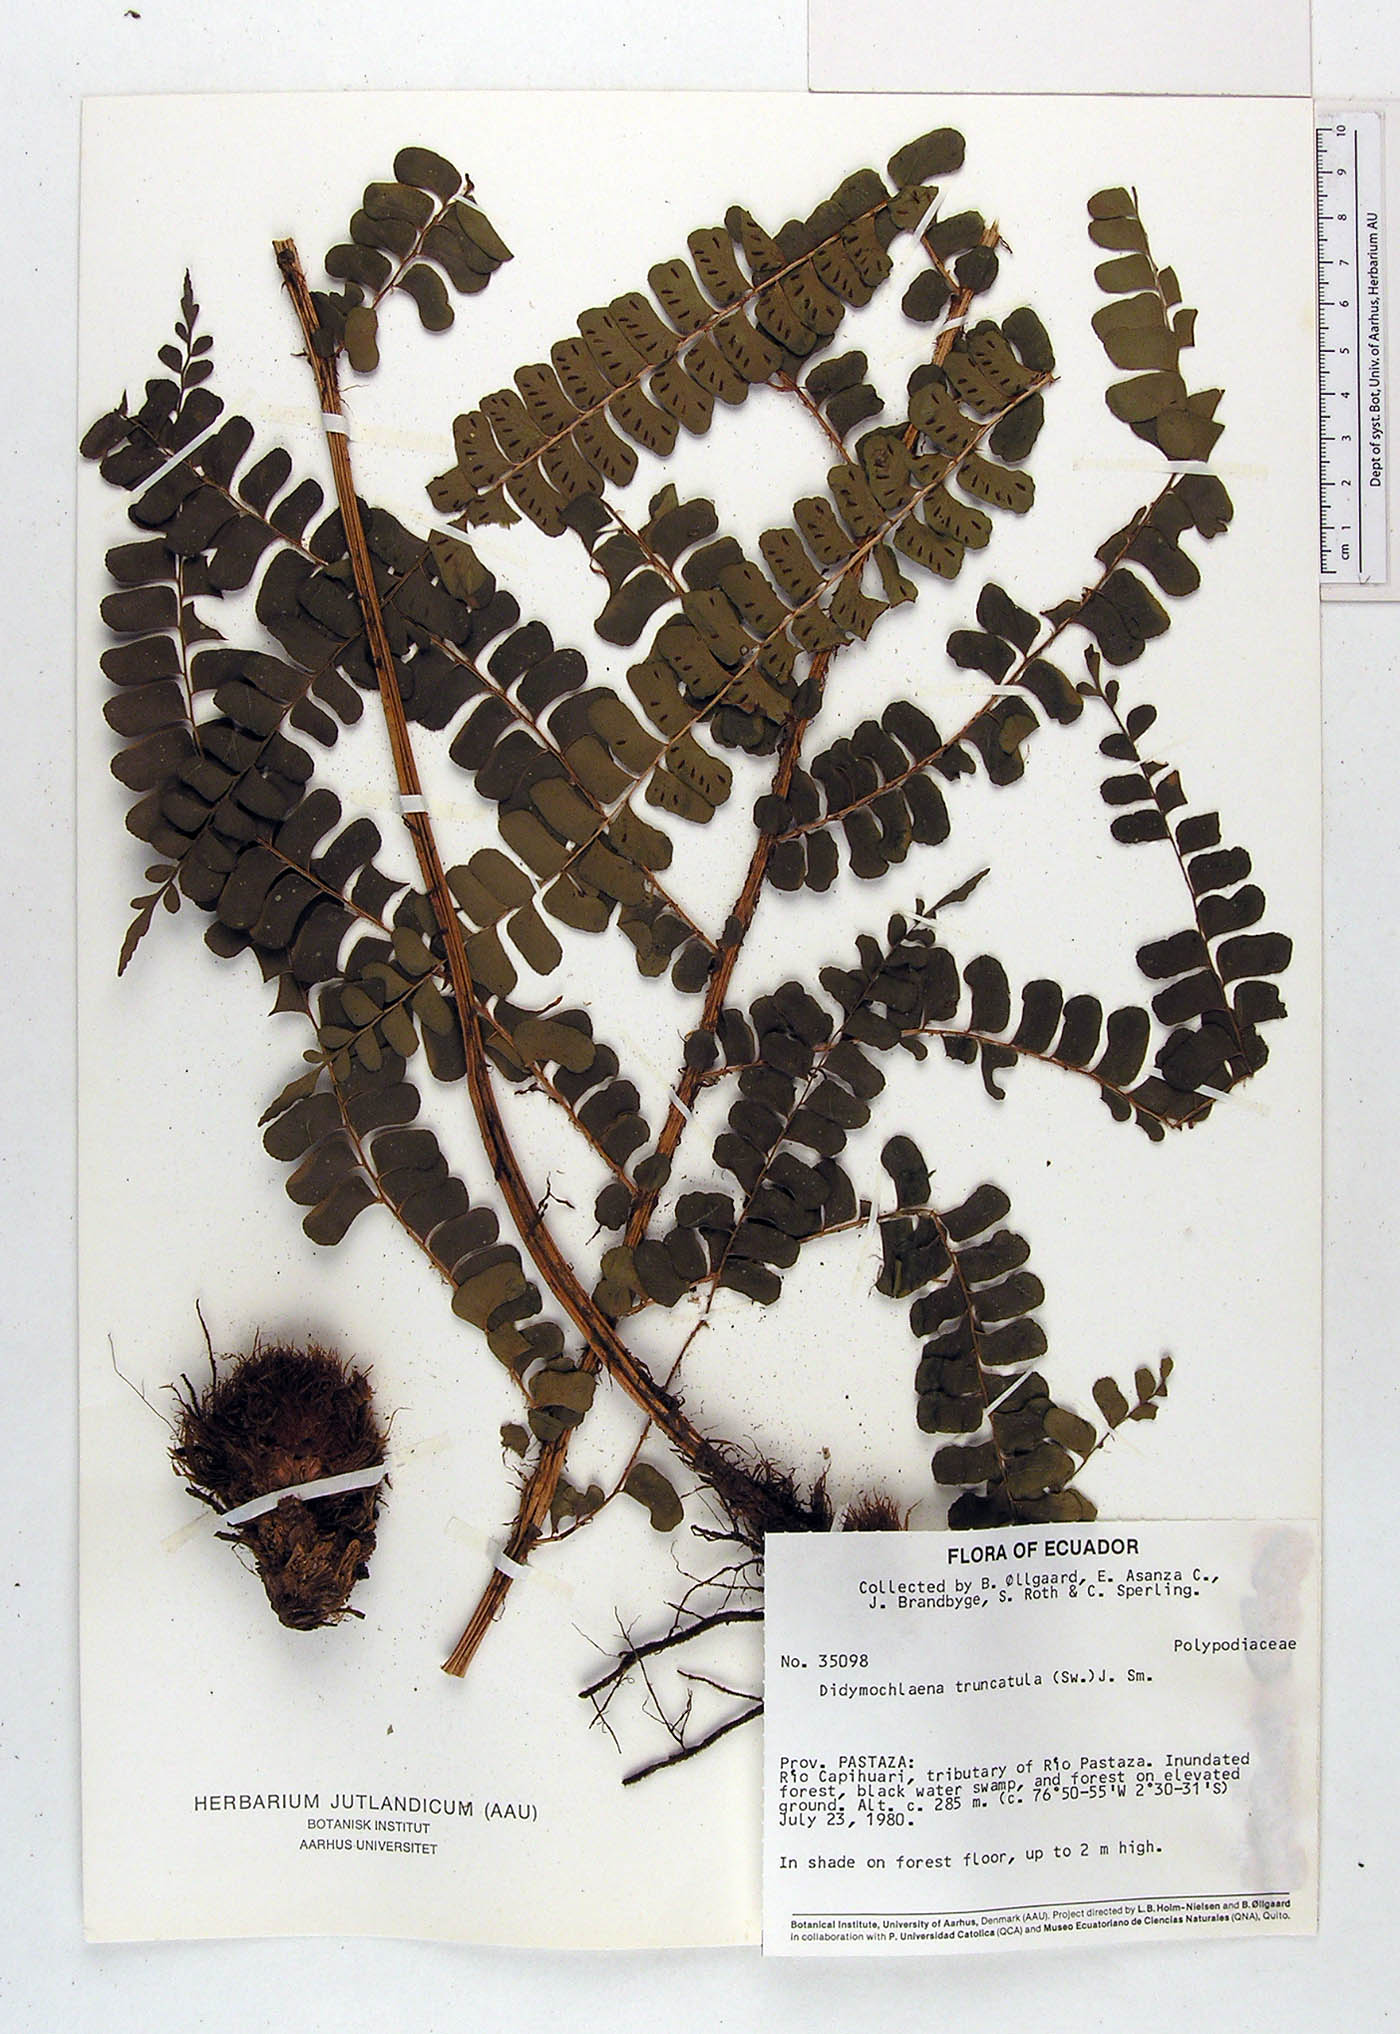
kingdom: Plantae
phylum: Tracheophyta
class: Polypodiopsida
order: Polypodiales
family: Didymochlaenaceae
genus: Didymochlaena
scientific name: Didymochlaena truncatula
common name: Mahogany fern
